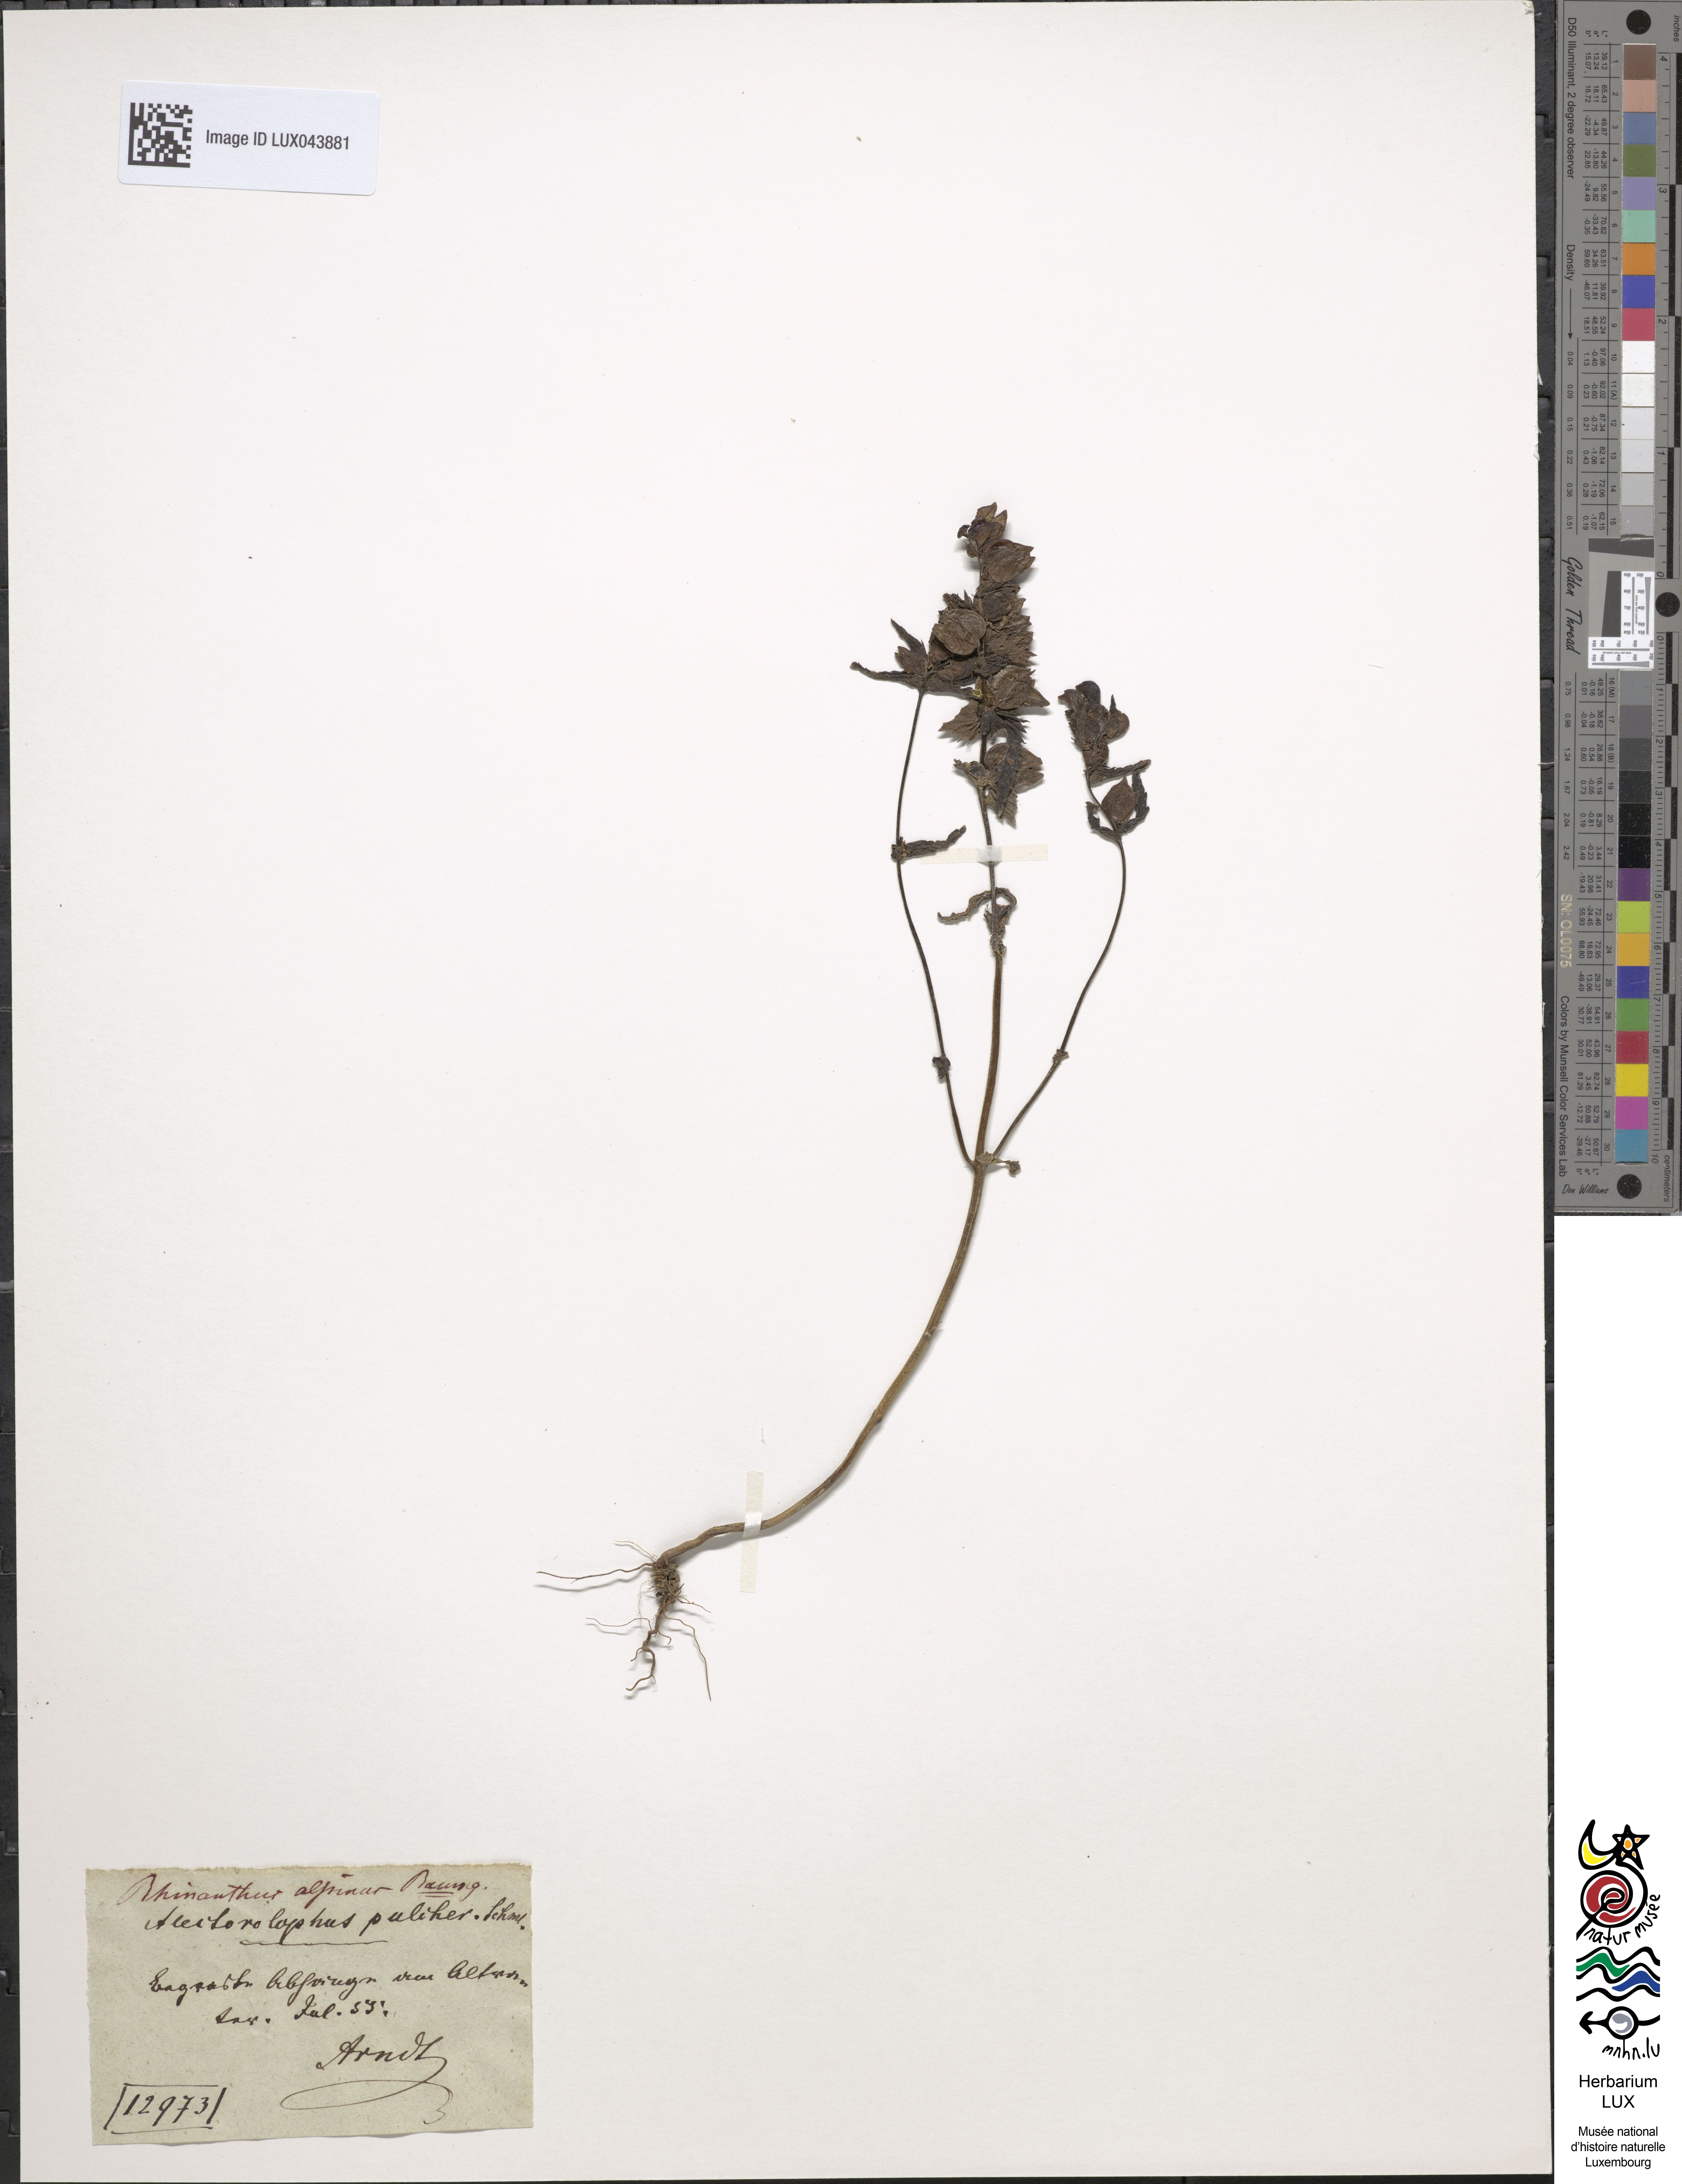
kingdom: Plantae
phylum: Tracheophyta
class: Magnoliopsida
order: Lamiales
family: Orobanchaceae
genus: Rhinanthus
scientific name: Rhinanthus
